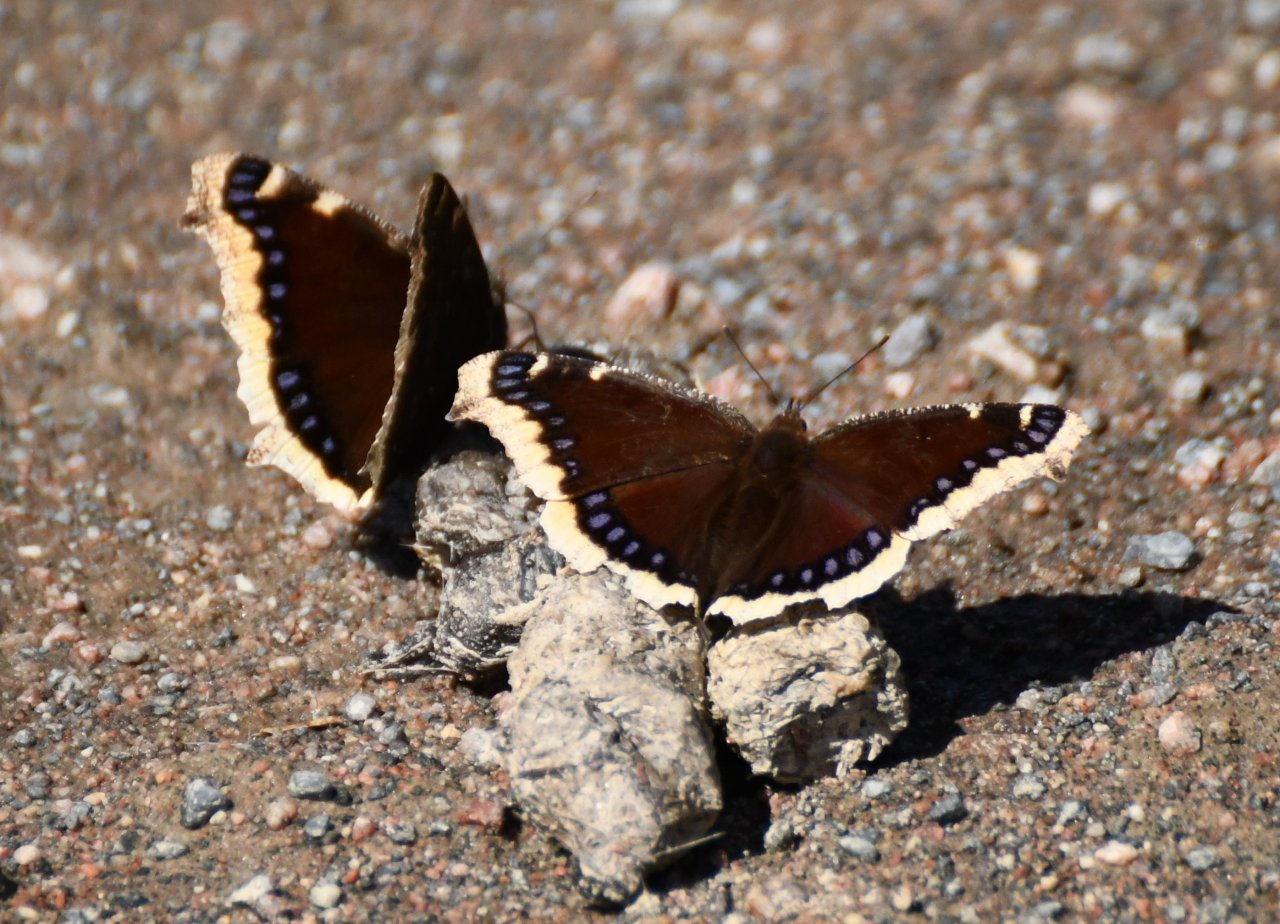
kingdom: Animalia
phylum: Arthropoda
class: Insecta
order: Lepidoptera
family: Nymphalidae
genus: Nymphalis
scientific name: Nymphalis antiopa
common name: Mourning Cloak
